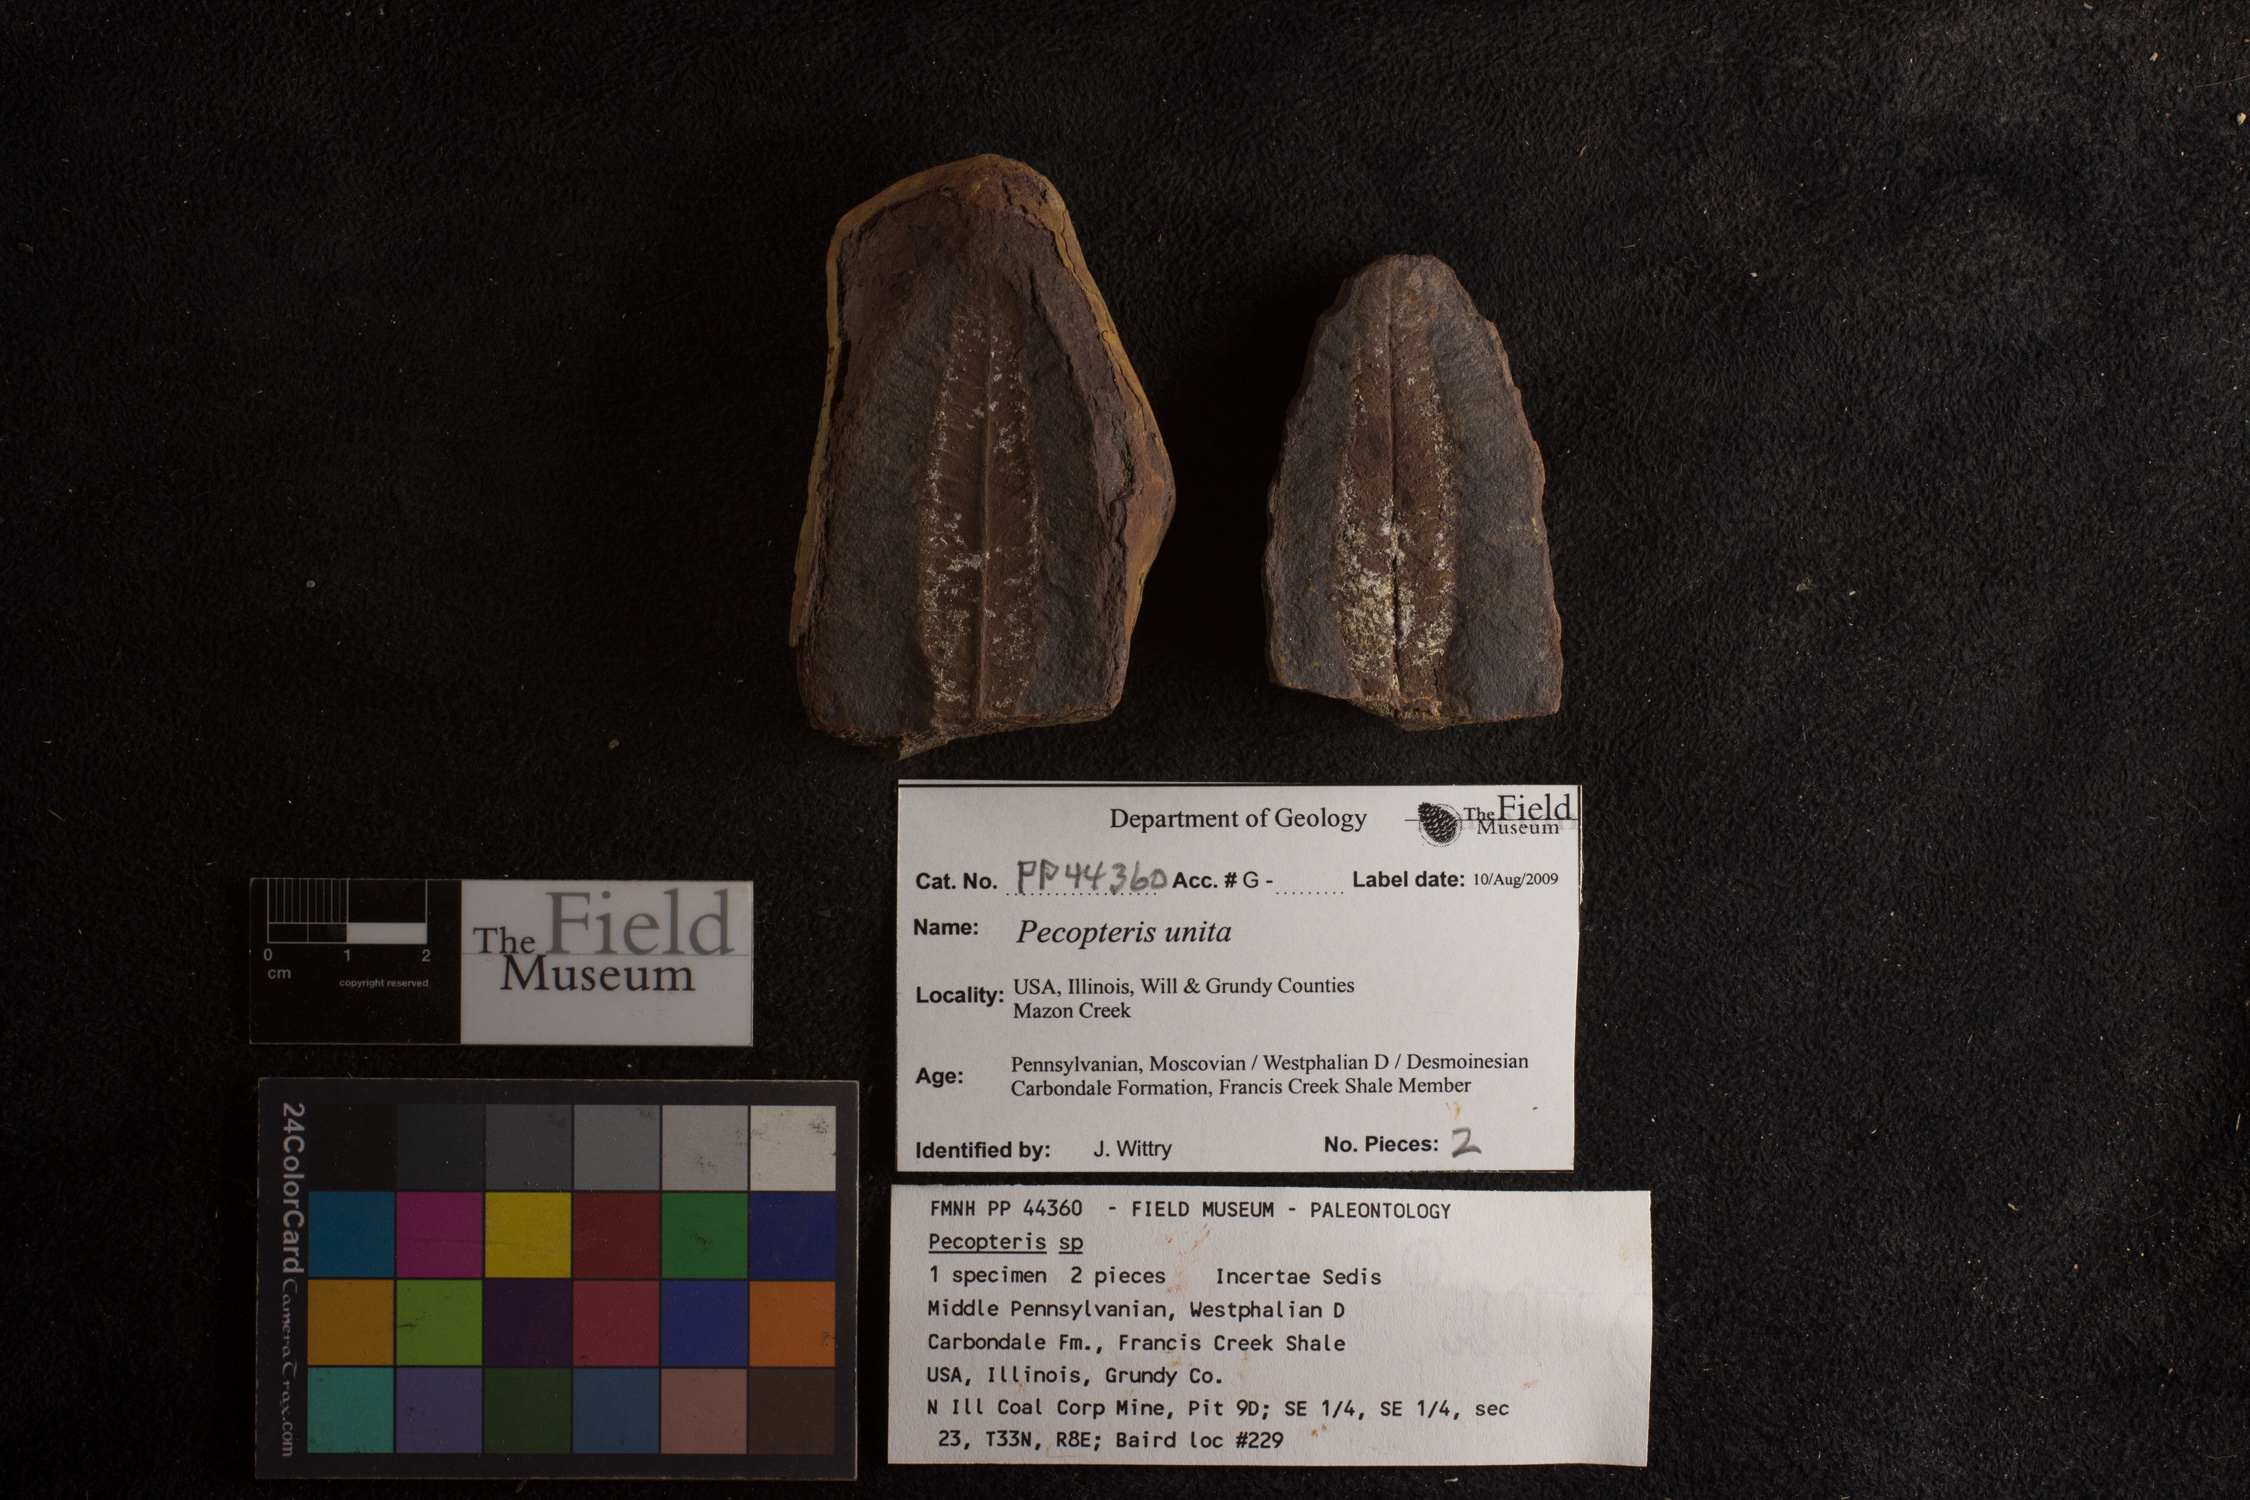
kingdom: Plantae
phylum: Tracheophyta
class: Polypodiopsida
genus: Diplazites
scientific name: Diplazites
